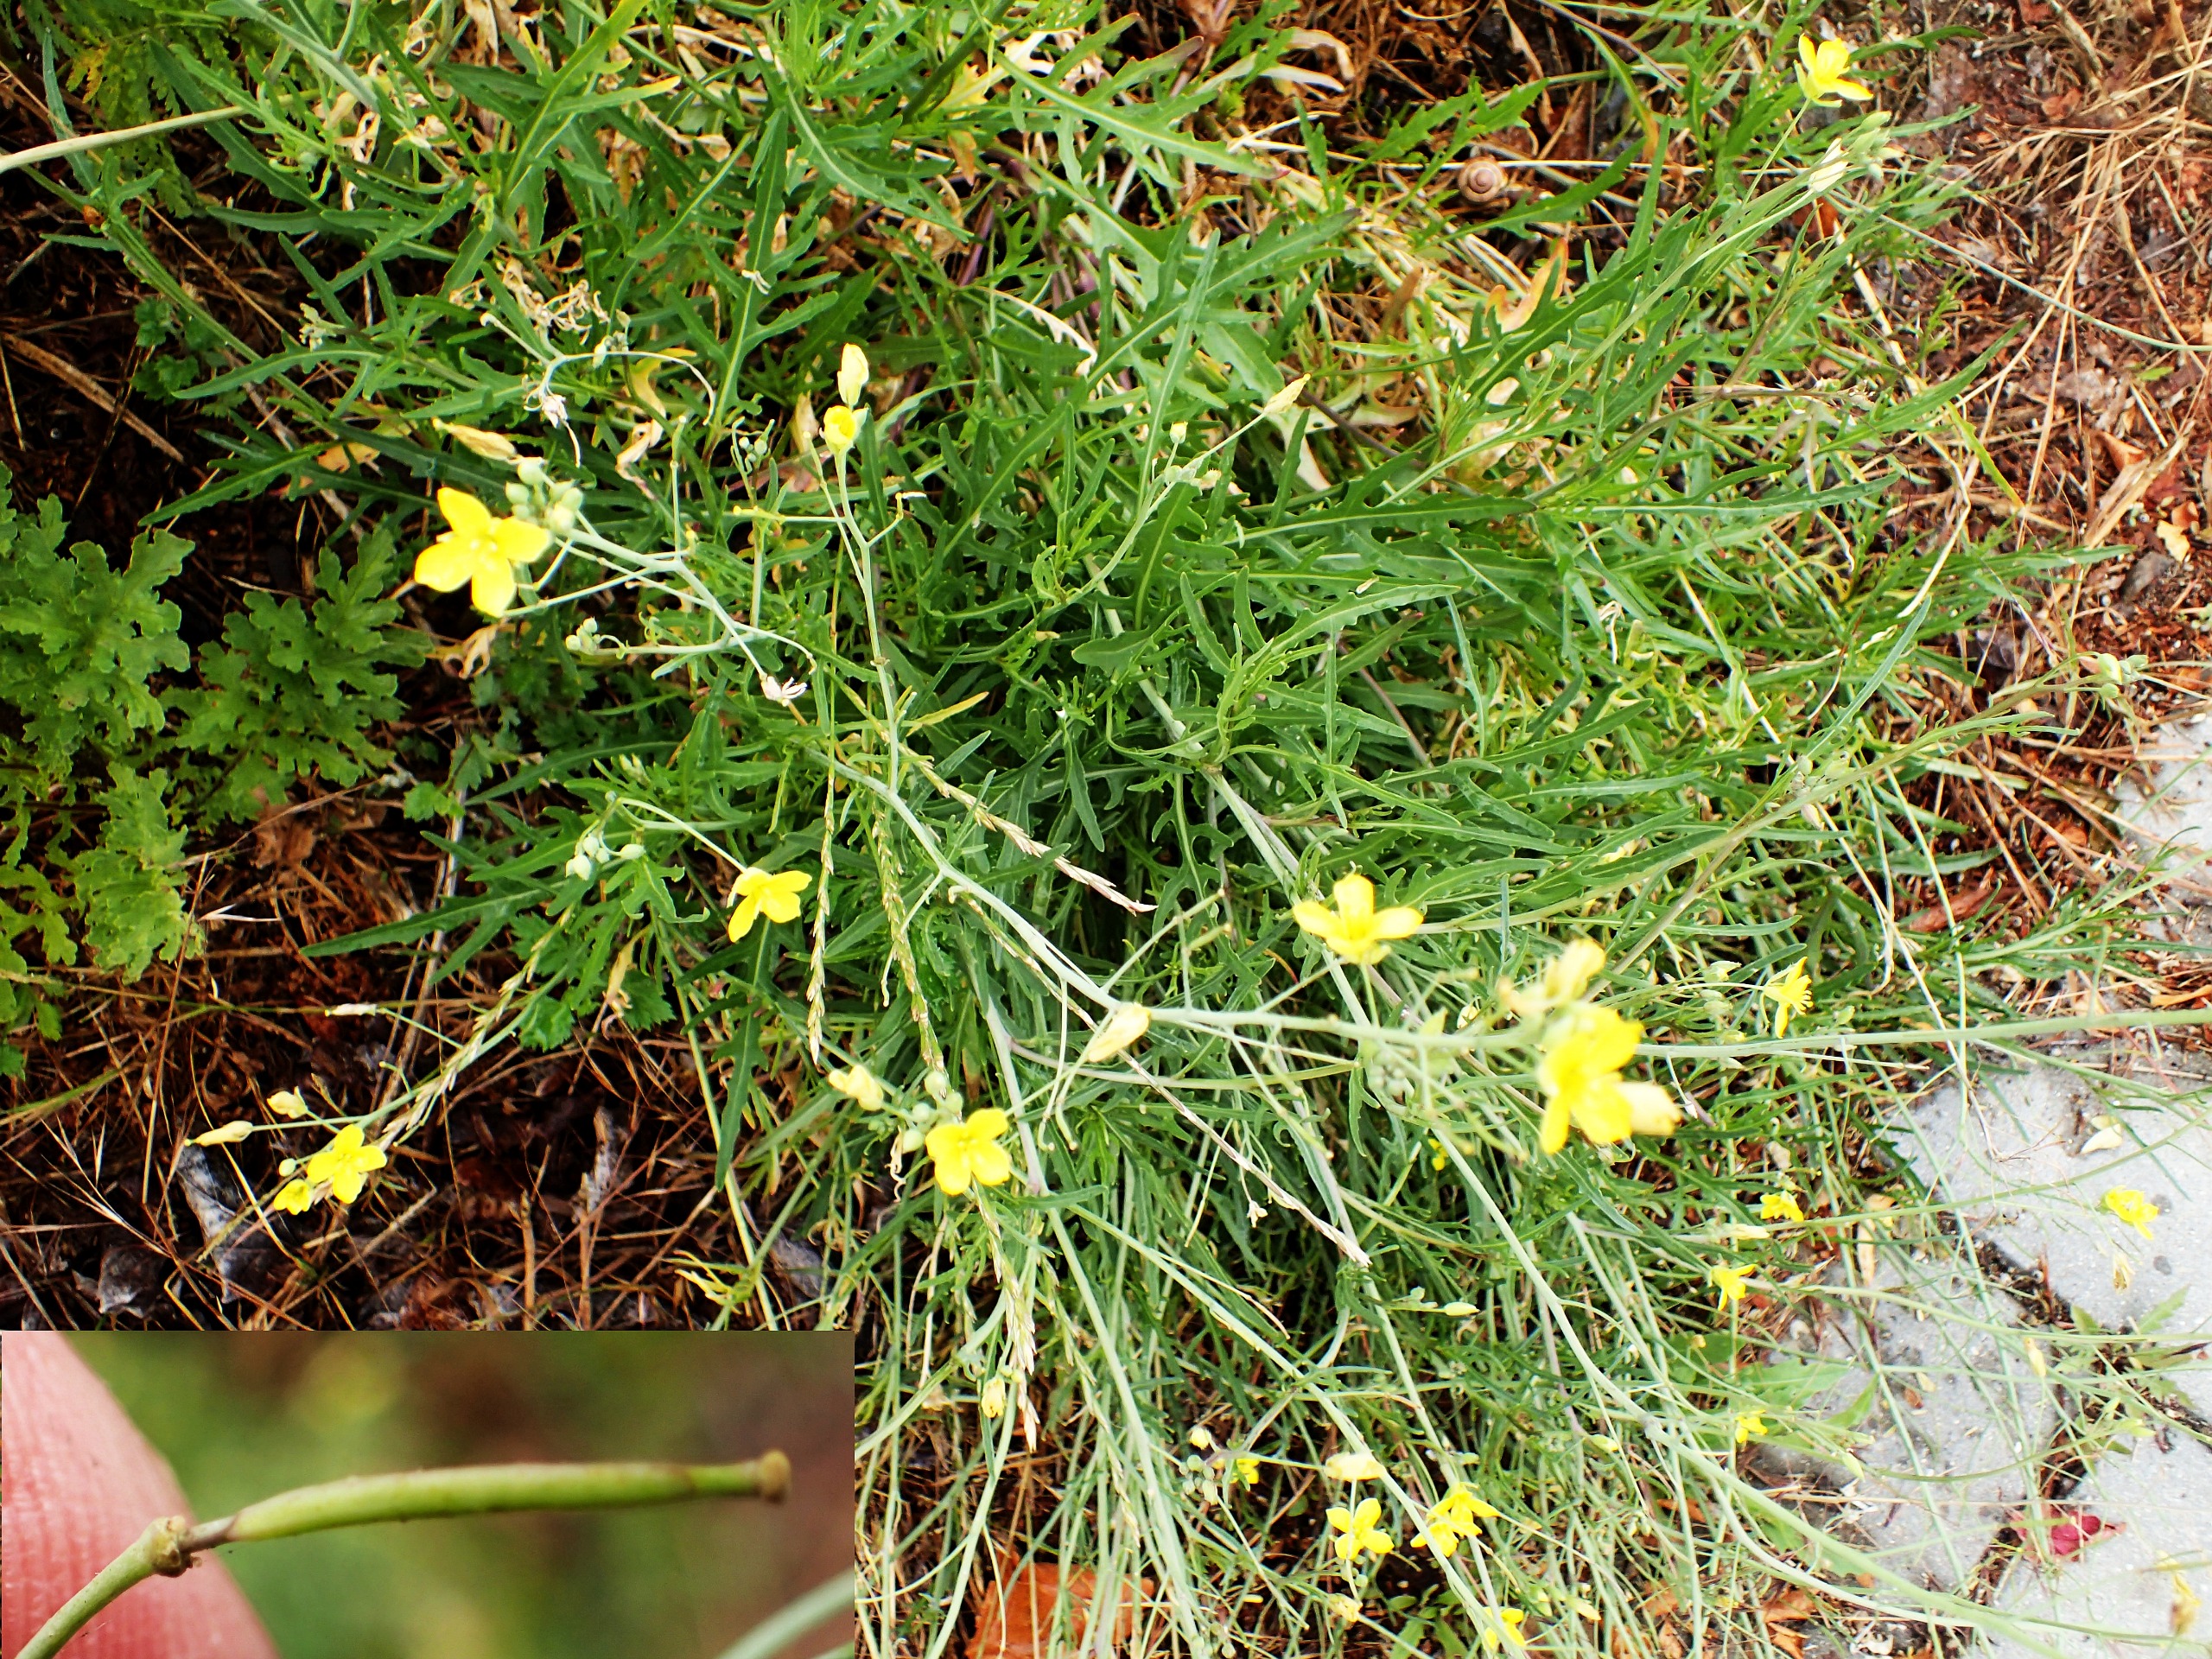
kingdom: Plantae
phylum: Tracheophyta
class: Magnoliopsida
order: Brassicales
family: Brassicaceae
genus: Diplotaxis
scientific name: Diplotaxis tenuifolia
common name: Sandsennep
